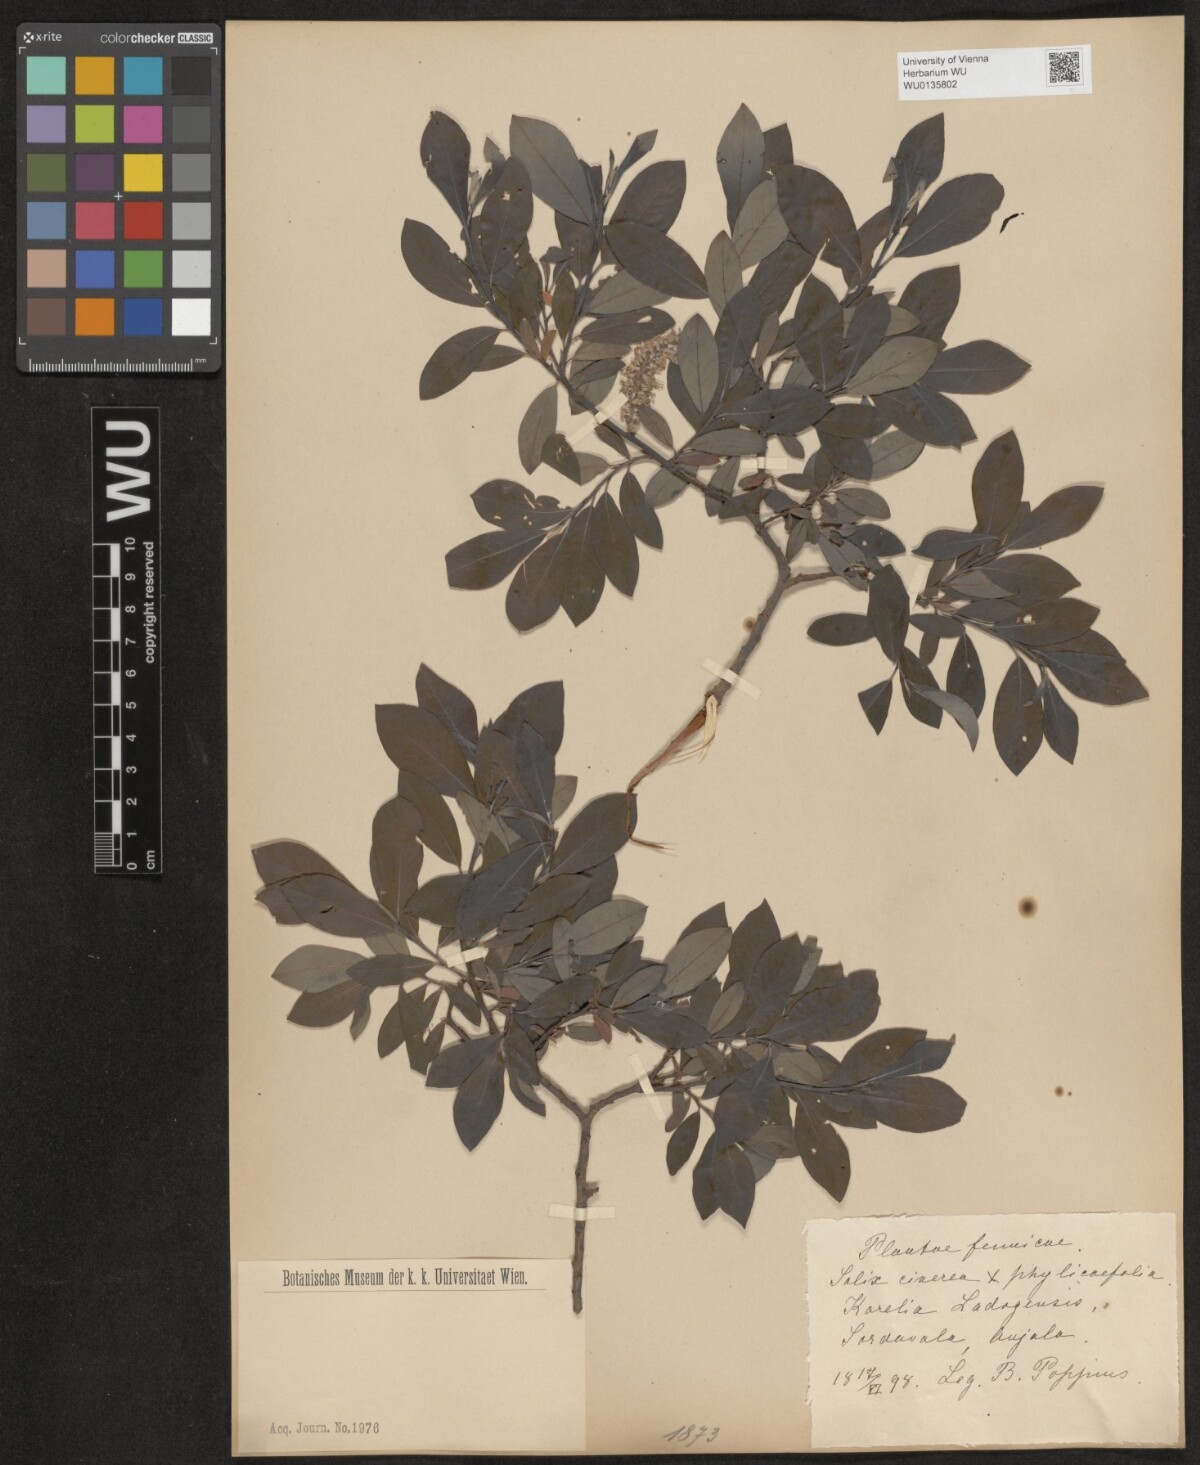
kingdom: Plantae
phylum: Tracheophyta
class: Magnoliopsida
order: Malpighiales
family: Salicaceae
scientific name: Salicaceae
